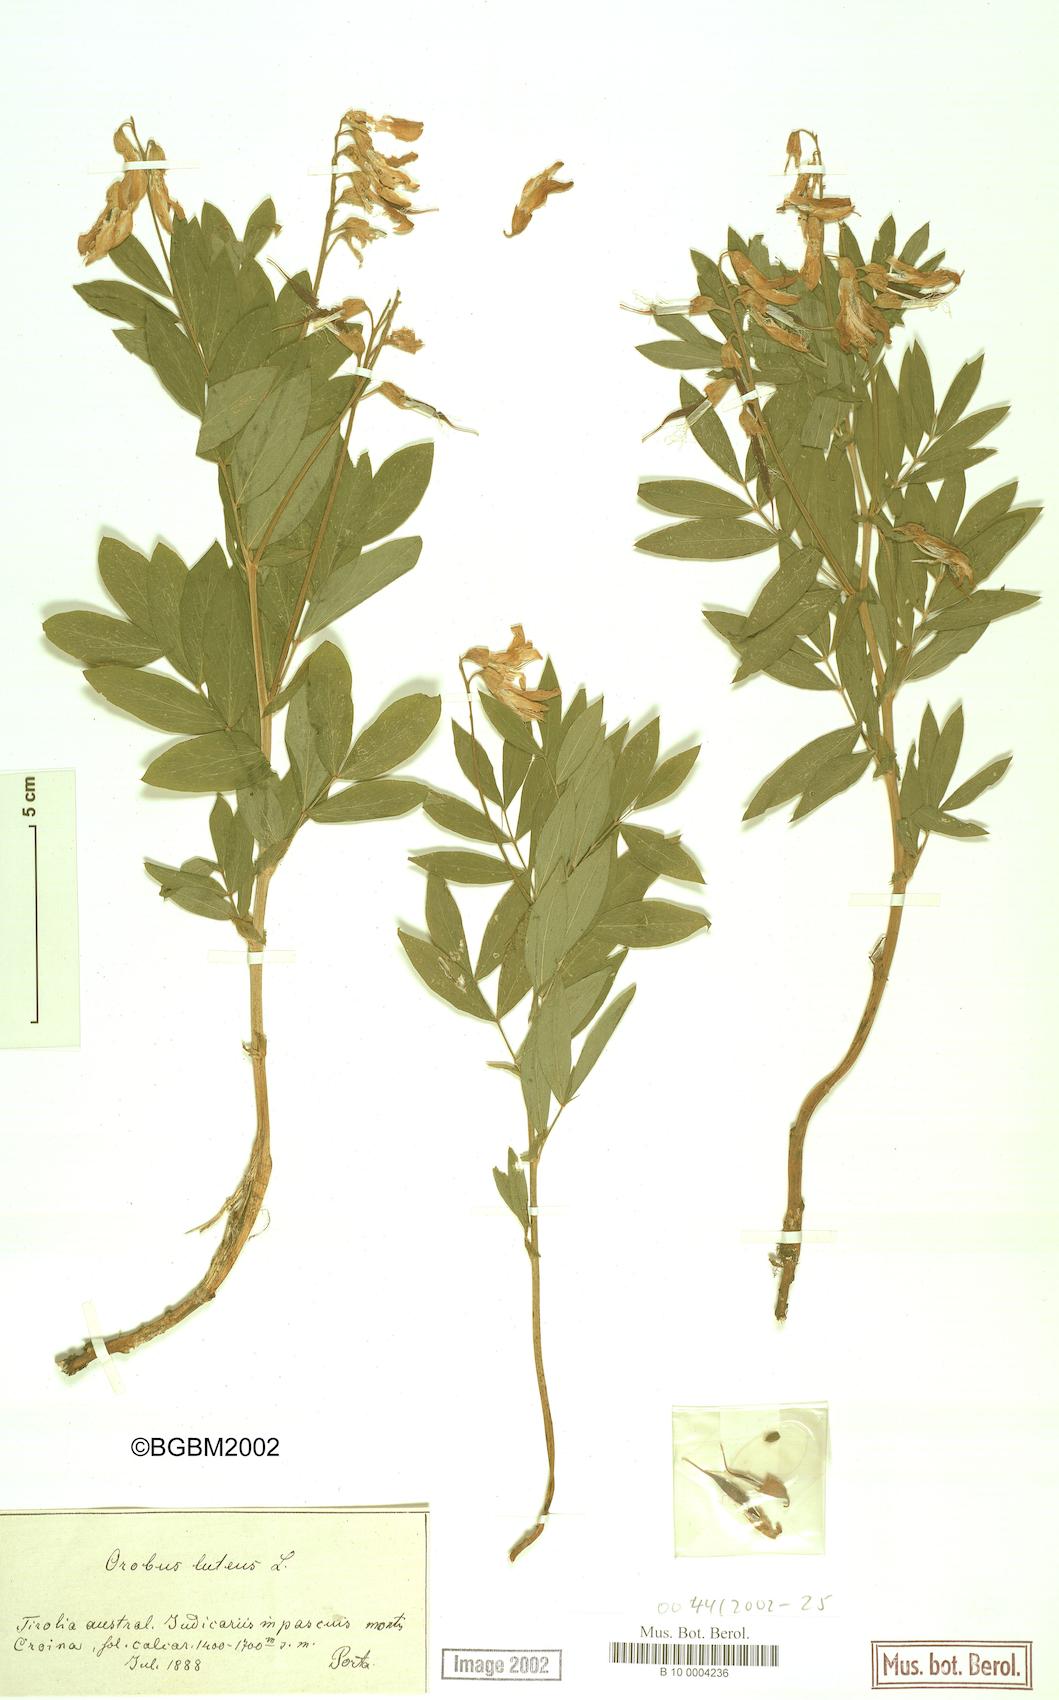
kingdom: Plantae
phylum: Tracheophyta
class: Magnoliopsida
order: Fabales
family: Fabaceae
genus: Lathyrus
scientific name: Lathyrus gmelinii
